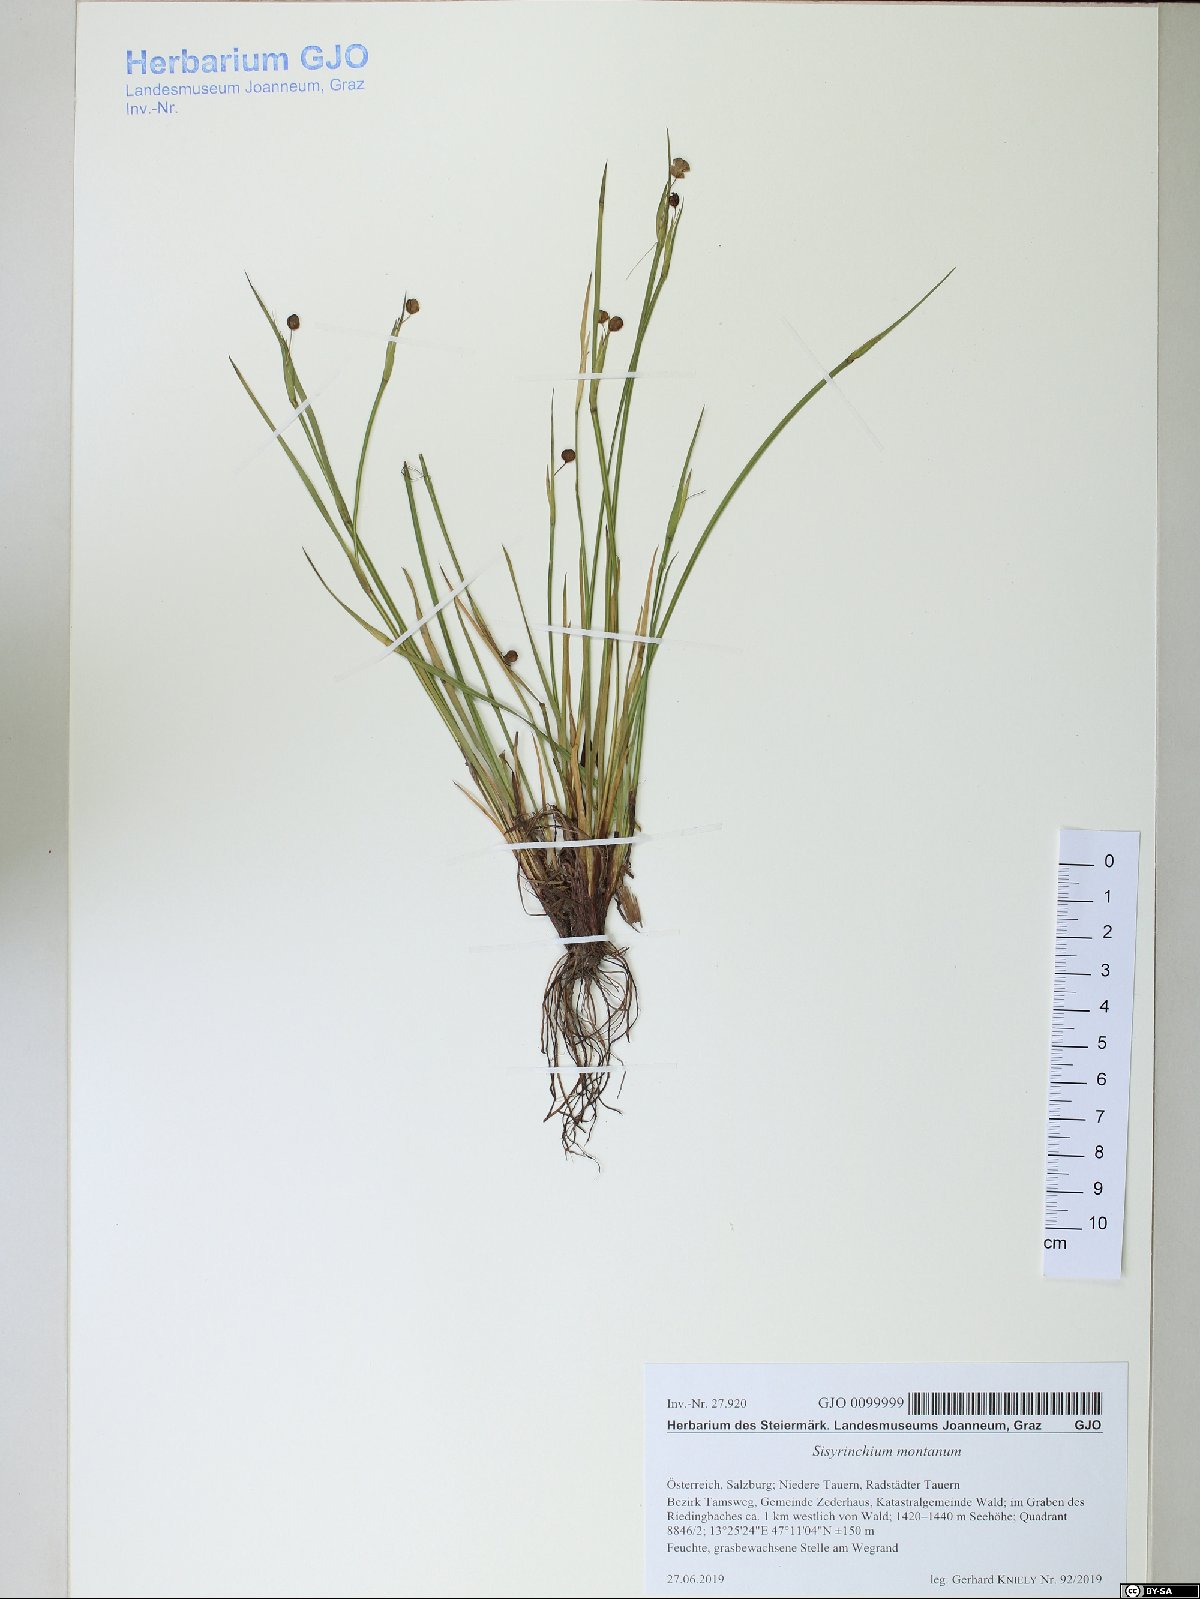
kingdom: Plantae
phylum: Tracheophyta
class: Liliopsida
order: Asparagales
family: Iridaceae
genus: Sisyrinchium
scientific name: Sisyrinchium montanum
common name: American blue-eyed-grass
